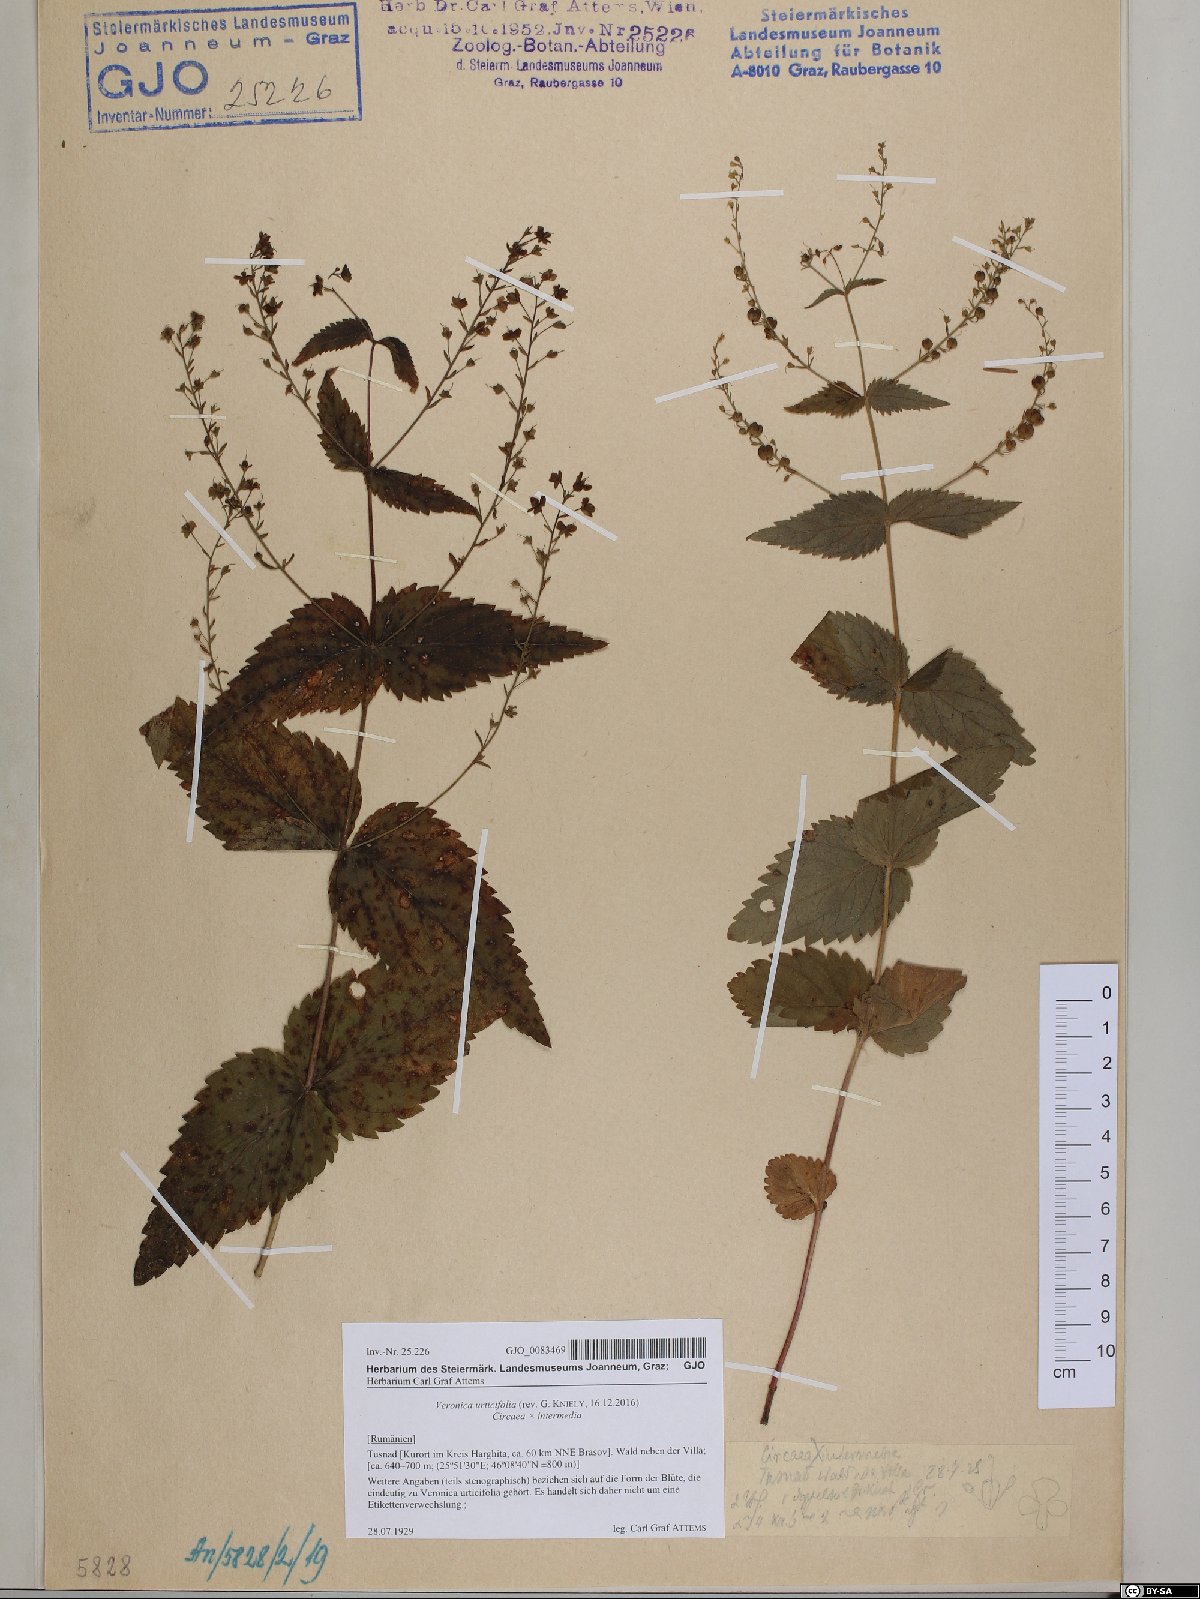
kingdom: Plantae
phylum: Tracheophyta
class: Magnoliopsida
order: Lamiales
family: Plantaginaceae
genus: Veronica
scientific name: Veronica urticifolia
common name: Nettle-leaf speedwell
